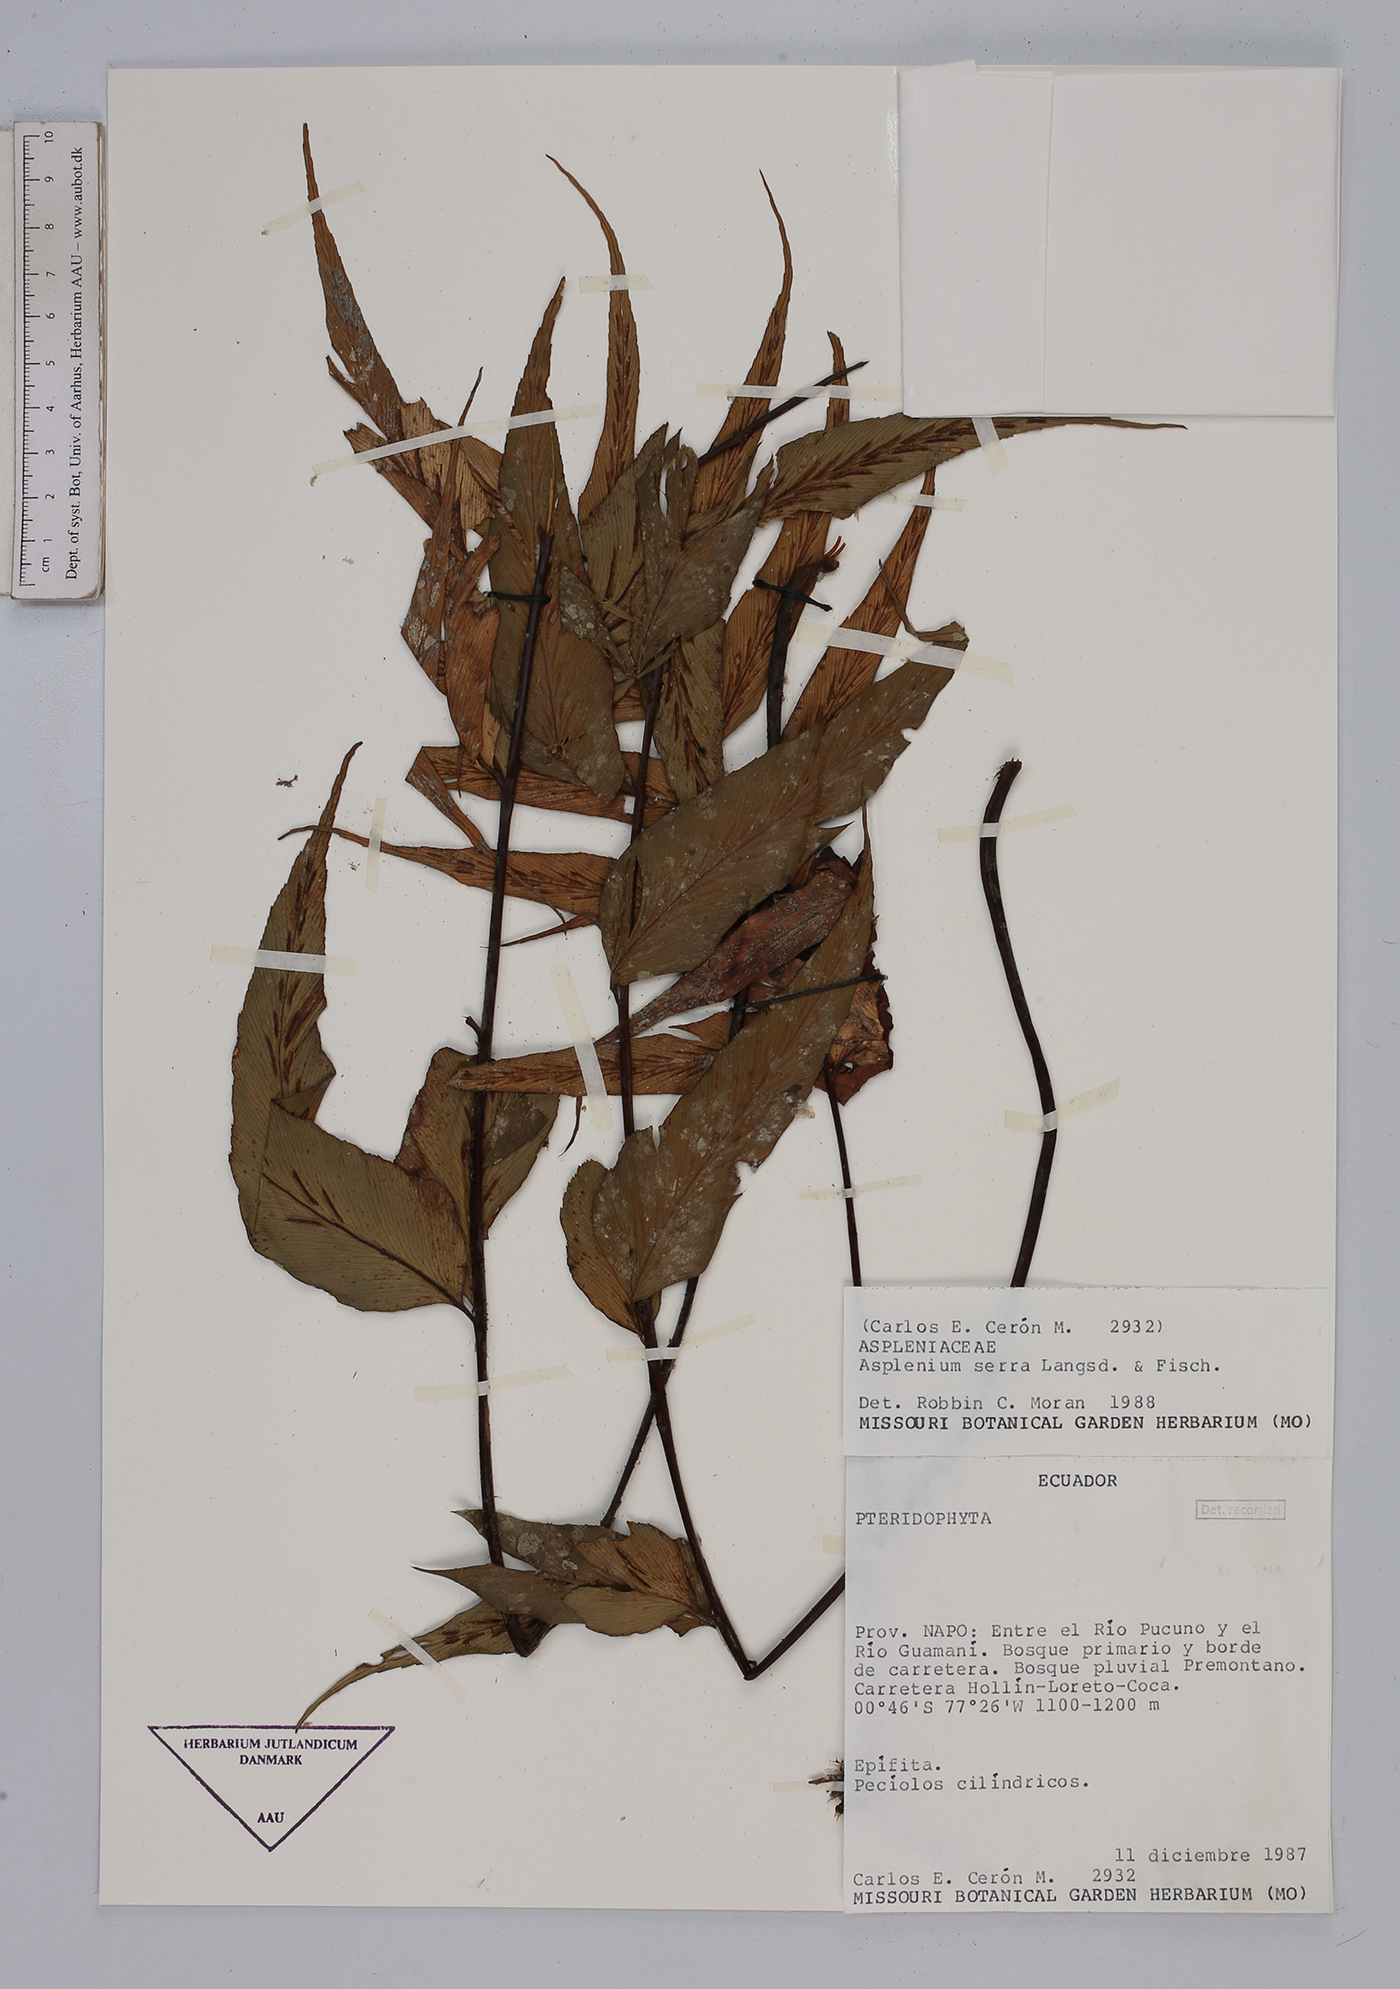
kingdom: Plantae
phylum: Tracheophyta
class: Polypodiopsida
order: Polypodiales
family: Aspleniaceae
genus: Asplenium
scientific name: Asplenium serra
